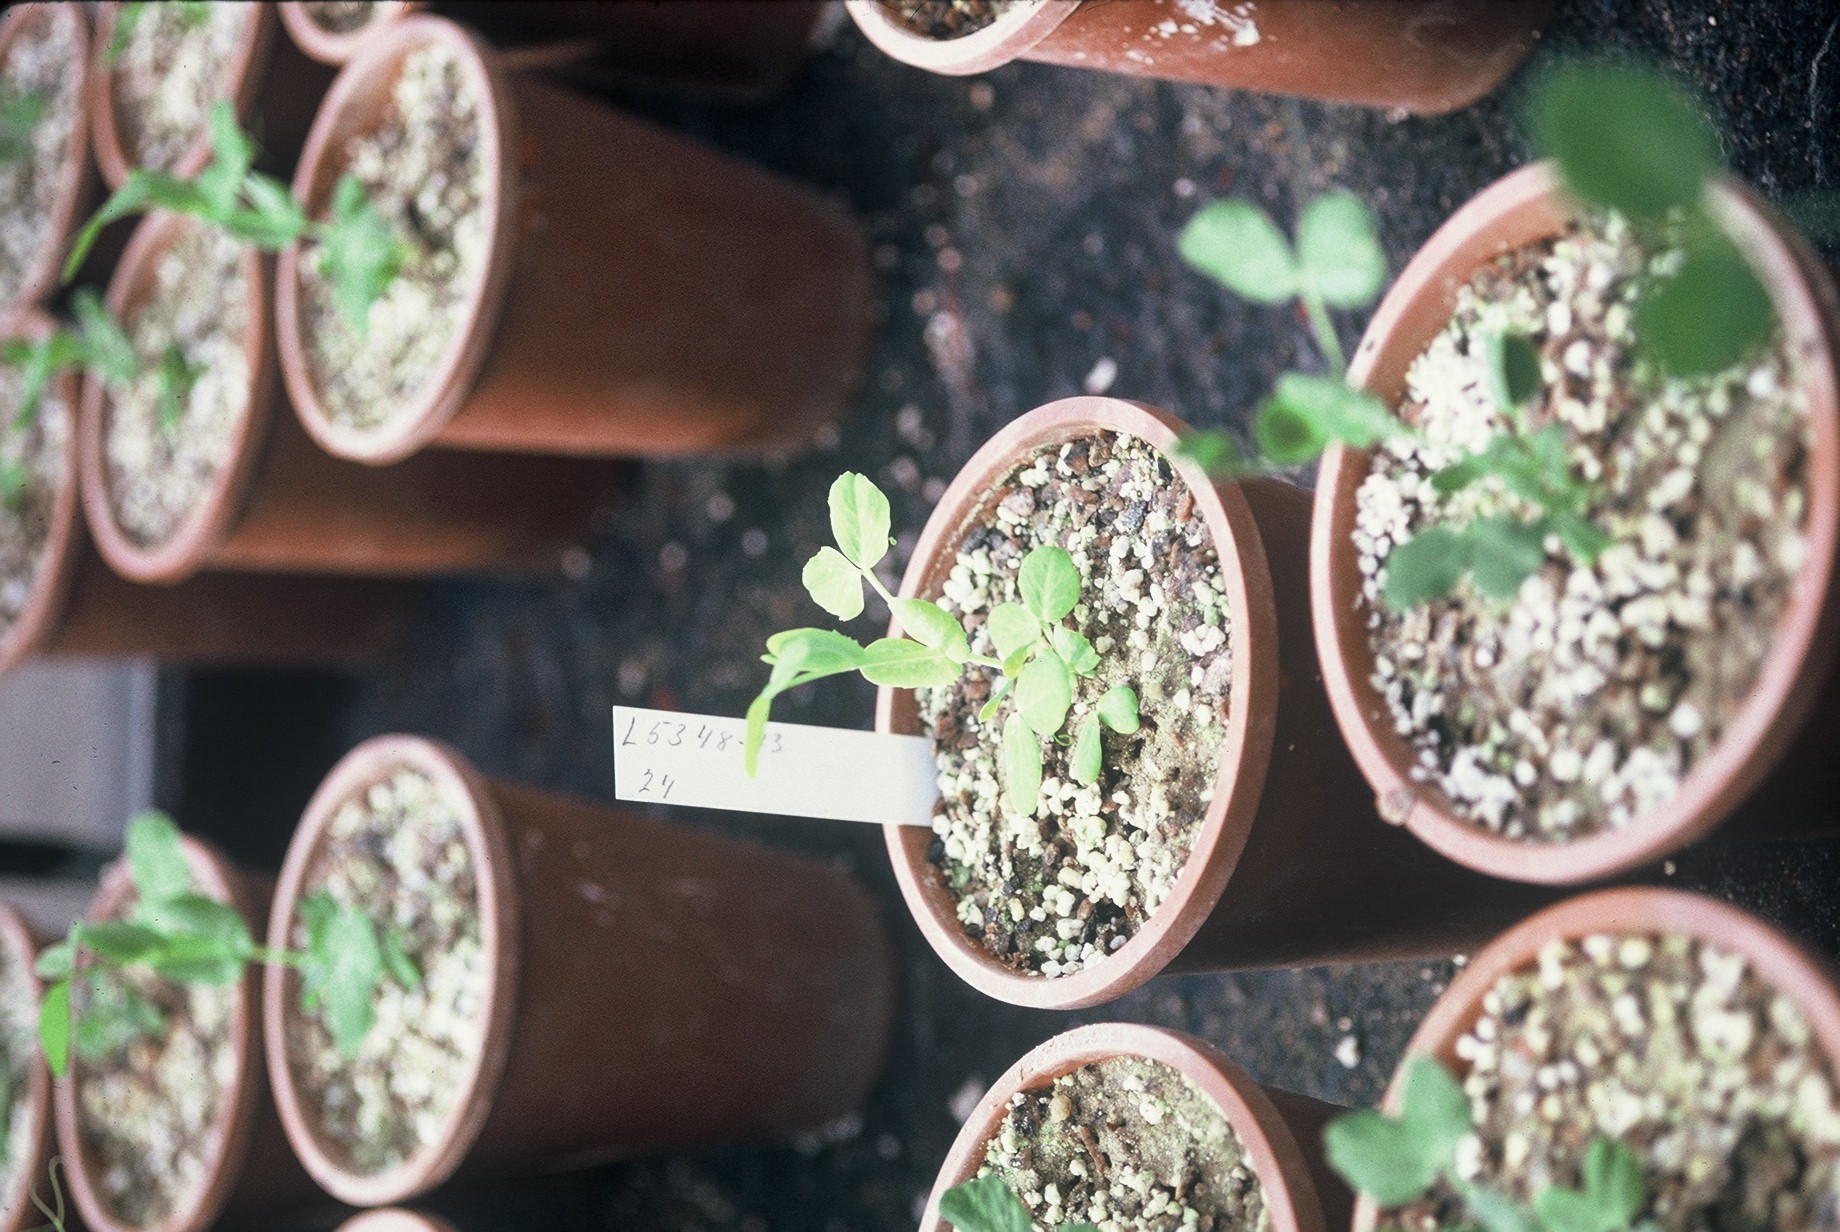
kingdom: Plantae
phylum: Tracheophyta
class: Magnoliopsida
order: Fabales
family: Fabaceae
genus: Lathyrus
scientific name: Lathyrus oleraceus
